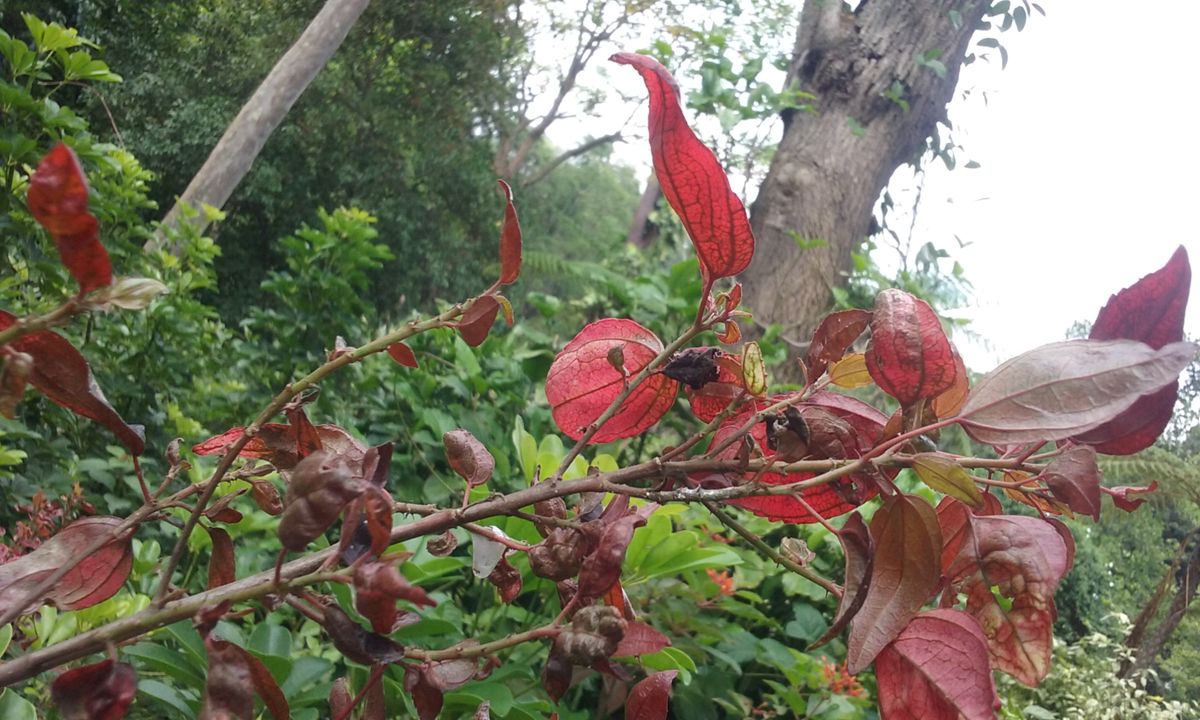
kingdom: Plantae
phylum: Tracheophyta
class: Magnoliopsida
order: Malpighiales
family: Euphorbiaceae
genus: Acalypha
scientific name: Acalypha
